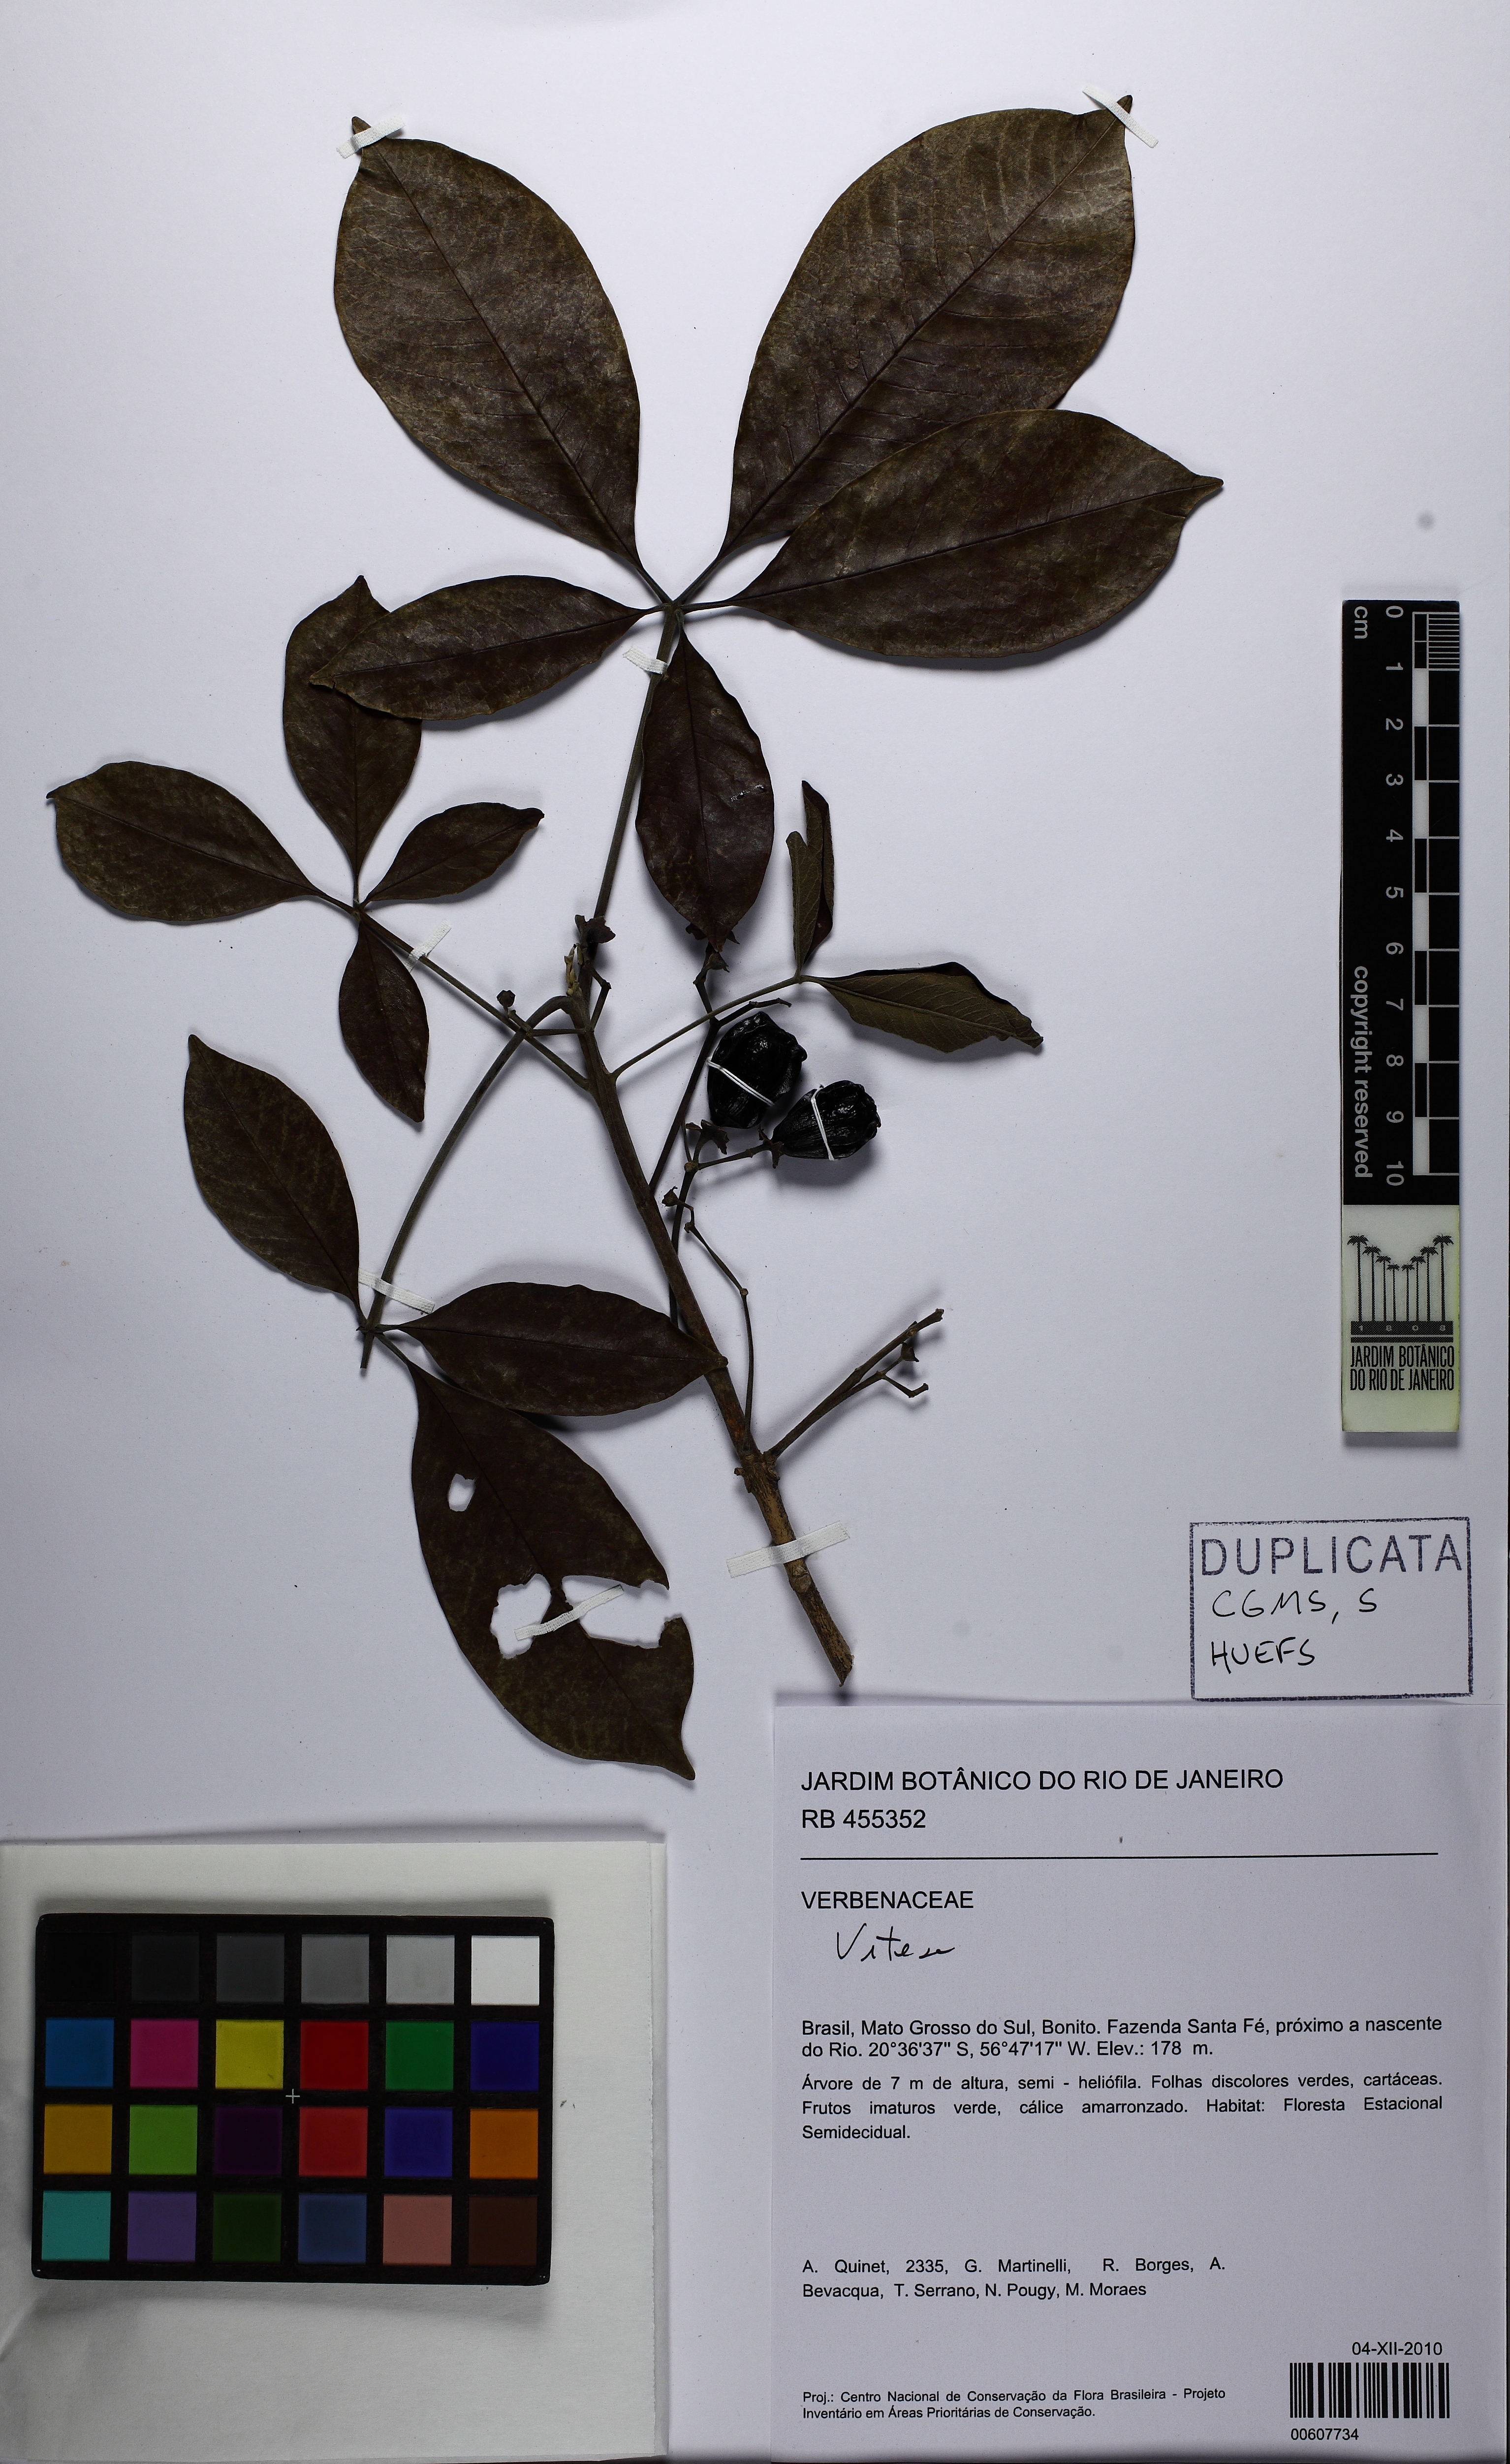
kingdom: Plantae
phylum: Tracheophyta
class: Magnoliopsida
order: Lamiales
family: Verbenaceae
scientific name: Verbenaceae
